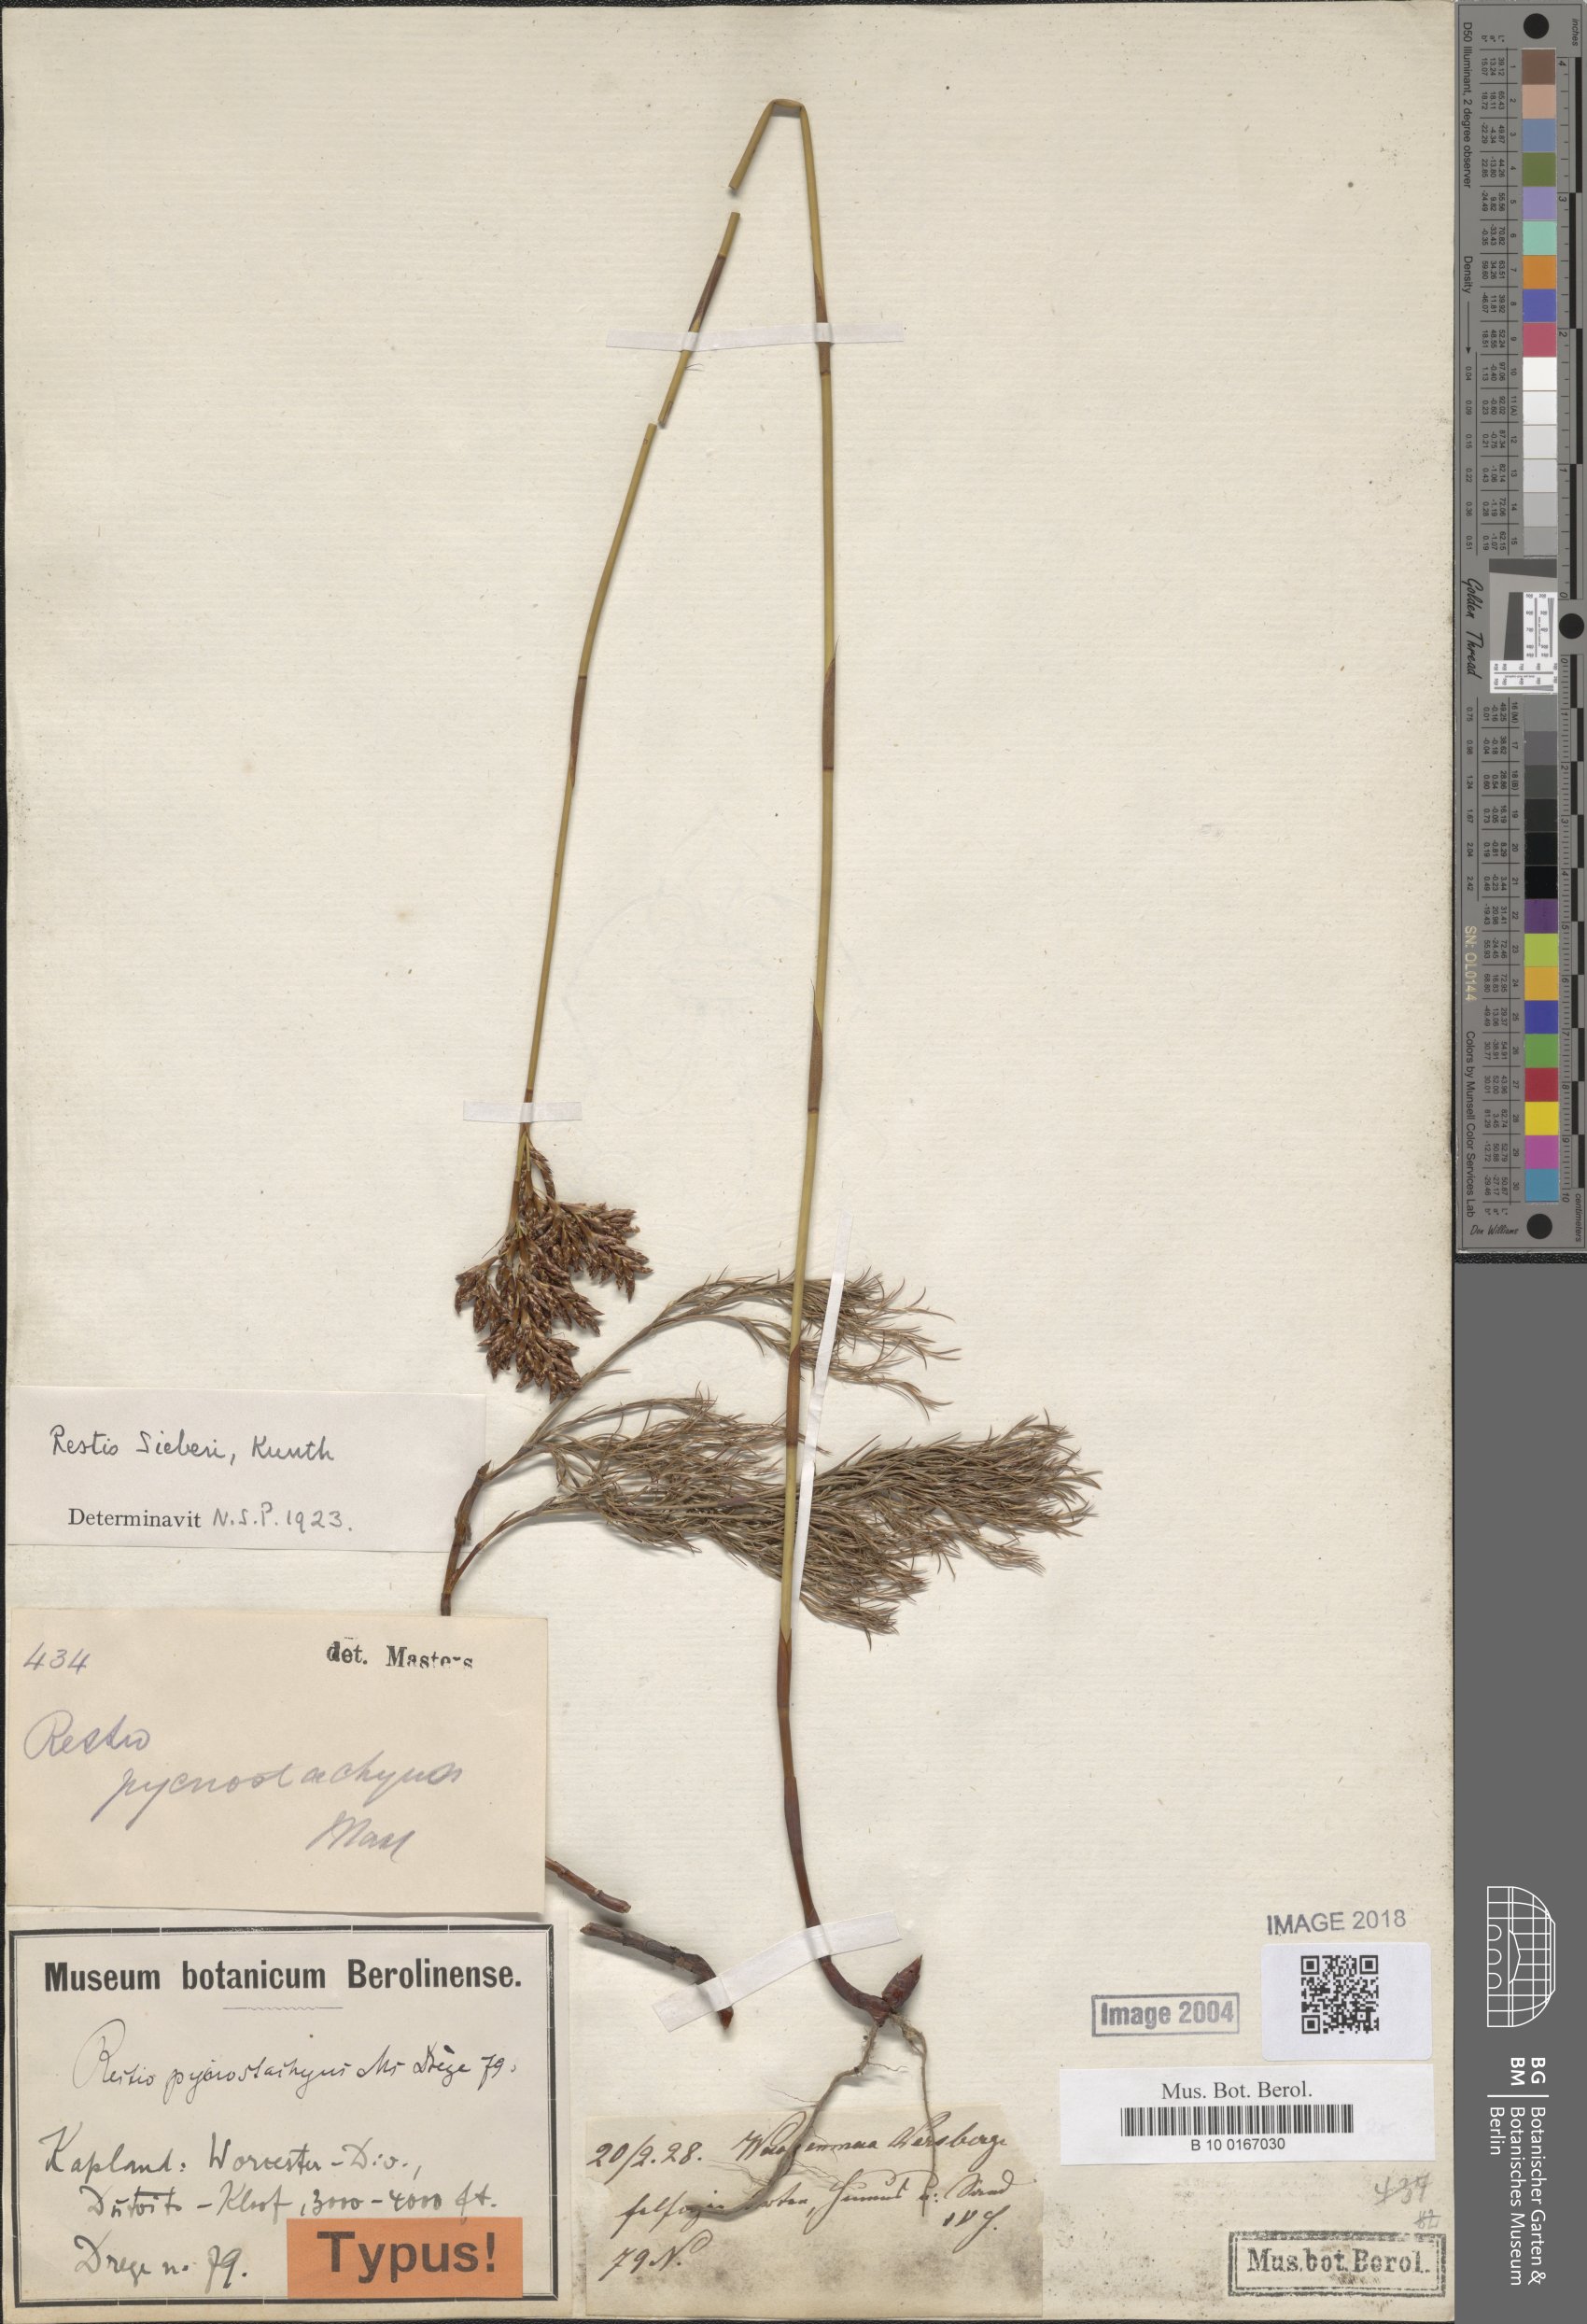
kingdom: Plantae
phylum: Tracheophyta
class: Liliopsida
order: Poales
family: Restionaceae
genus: Restio
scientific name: Restio sieberi
